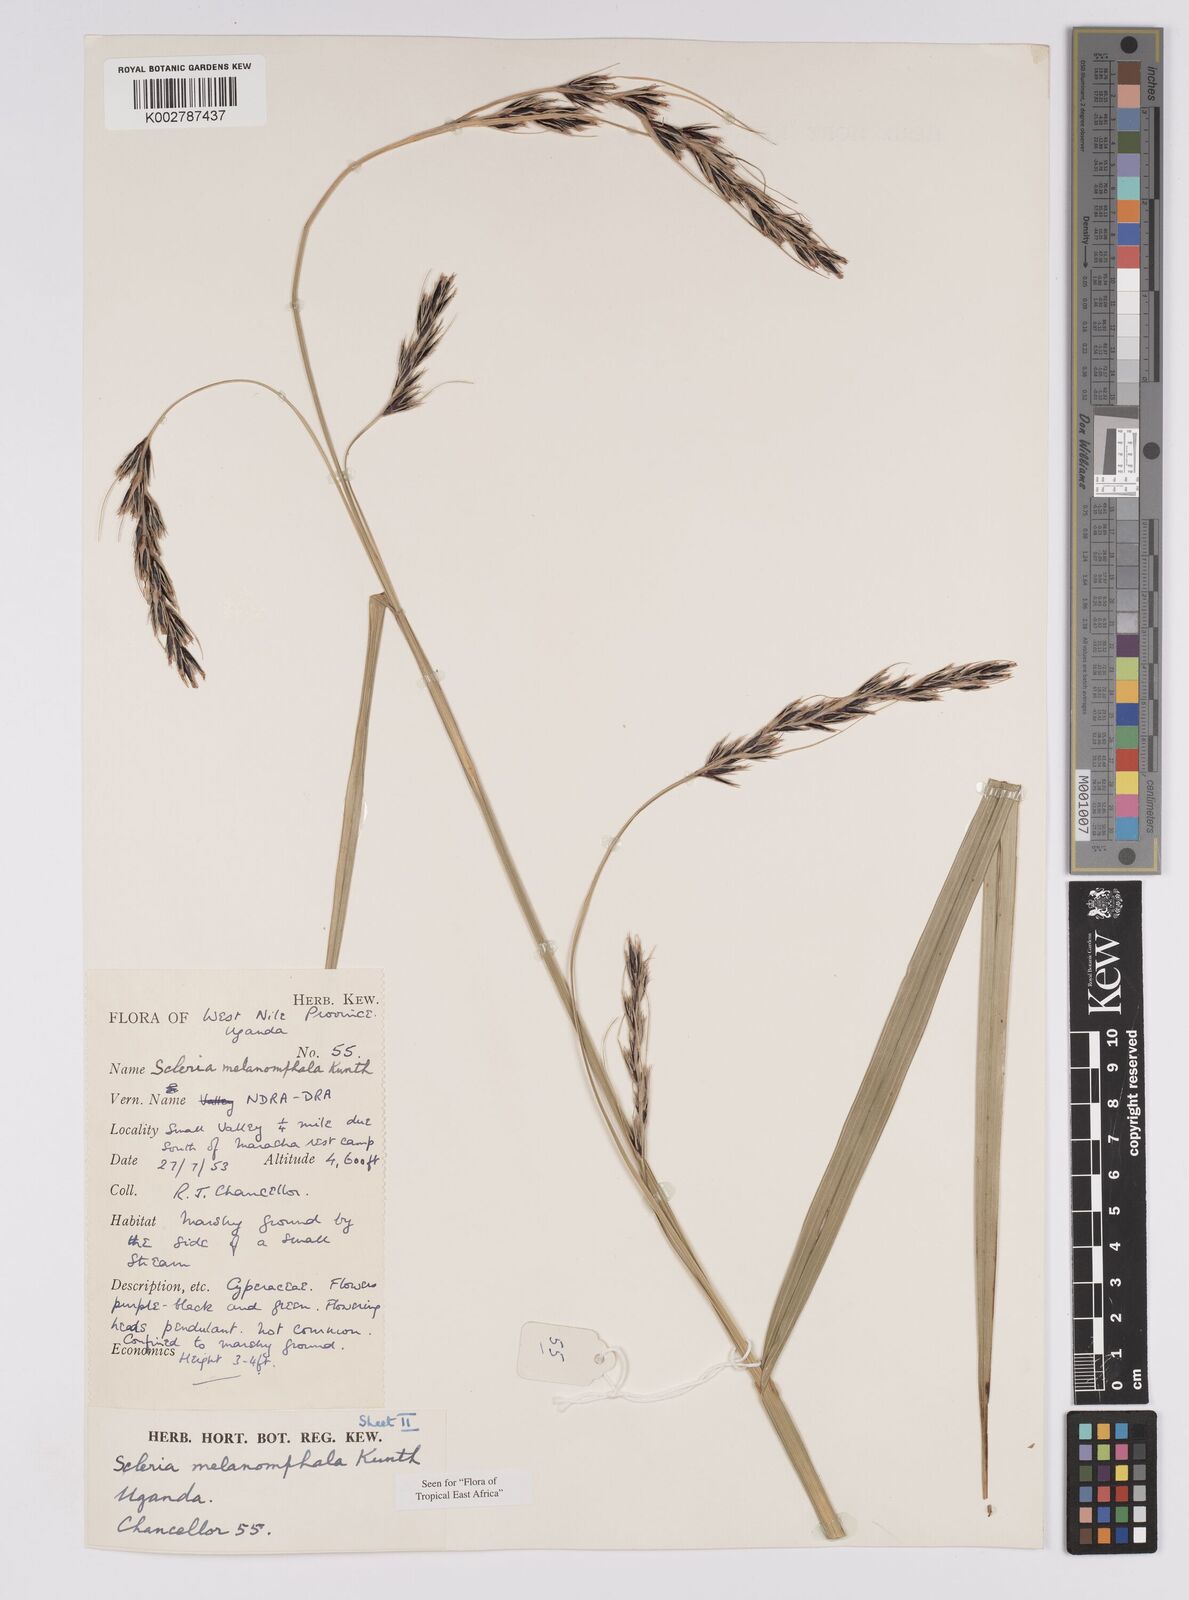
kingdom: Plantae
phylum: Tracheophyta
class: Liliopsida
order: Poales
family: Cyperaceae
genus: Scleria
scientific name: Scleria melanomphala
